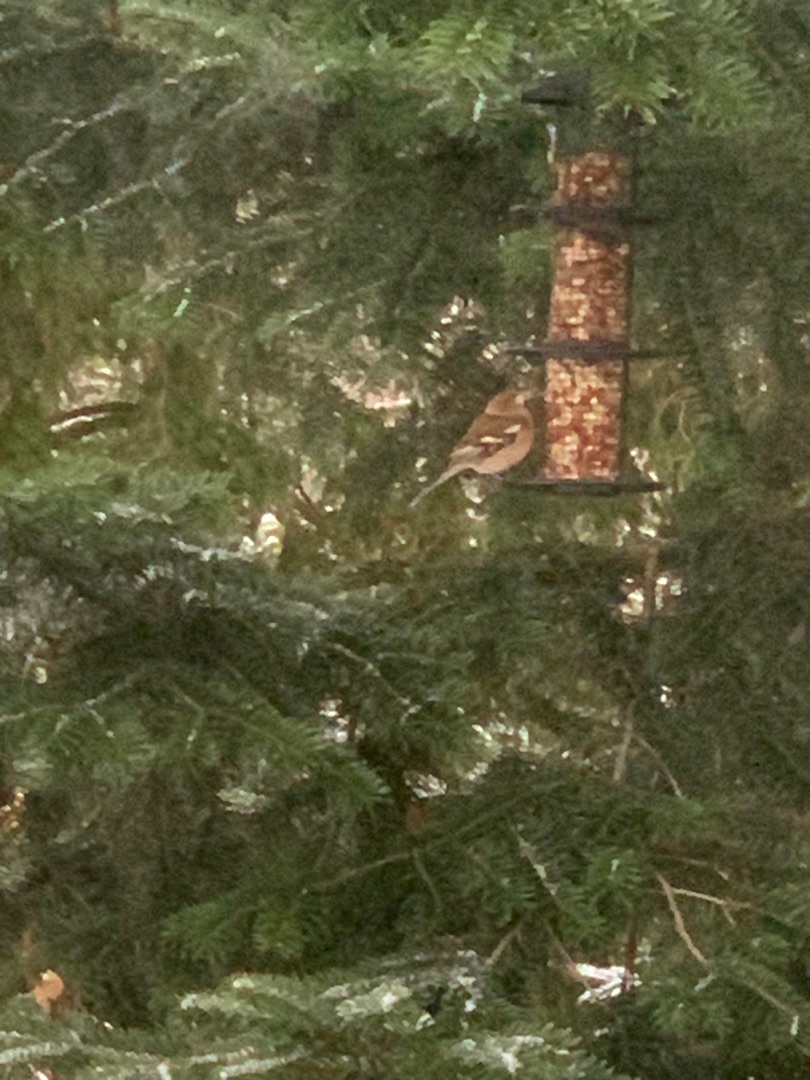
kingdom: Animalia
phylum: Chordata
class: Aves
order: Passeriformes
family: Fringillidae
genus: Fringilla
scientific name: Fringilla coelebs
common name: Bogfinke
